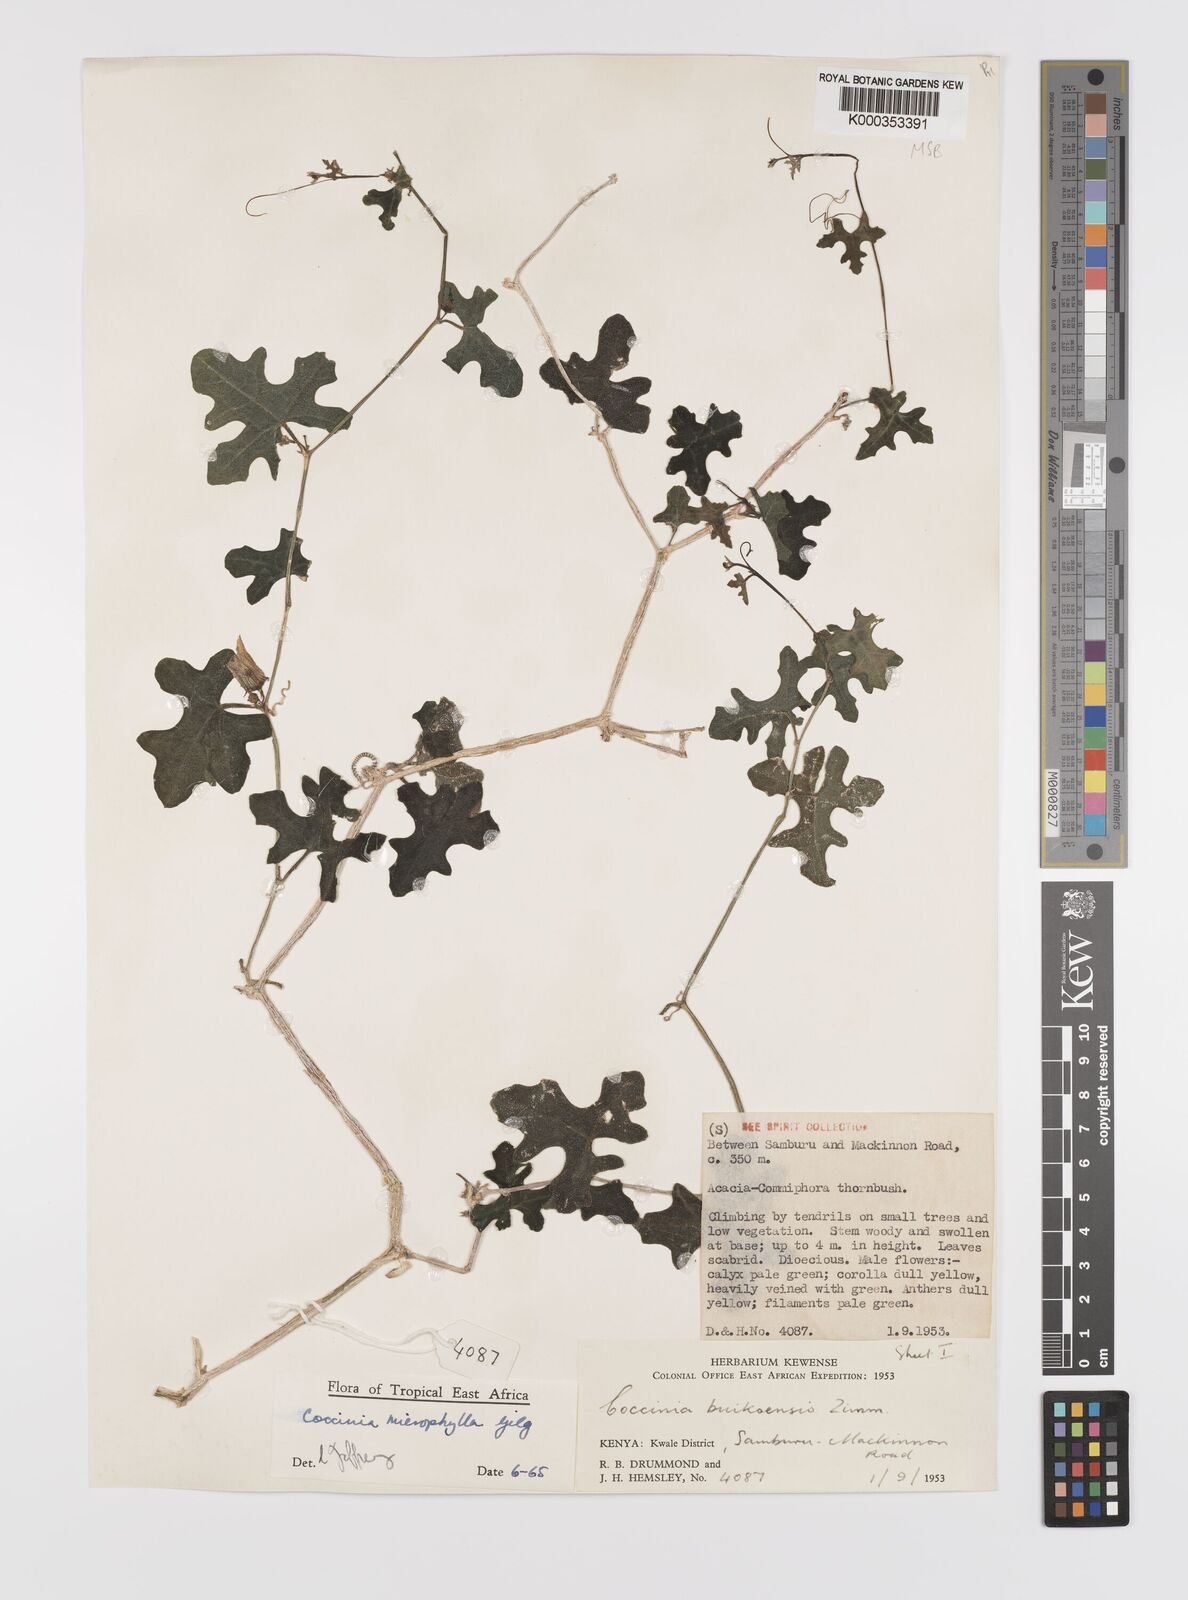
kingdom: Plantae
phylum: Tracheophyta
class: Magnoliopsida
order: Cucurbitales
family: Cucurbitaceae
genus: Coccinia
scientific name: Coccinia microphylla
